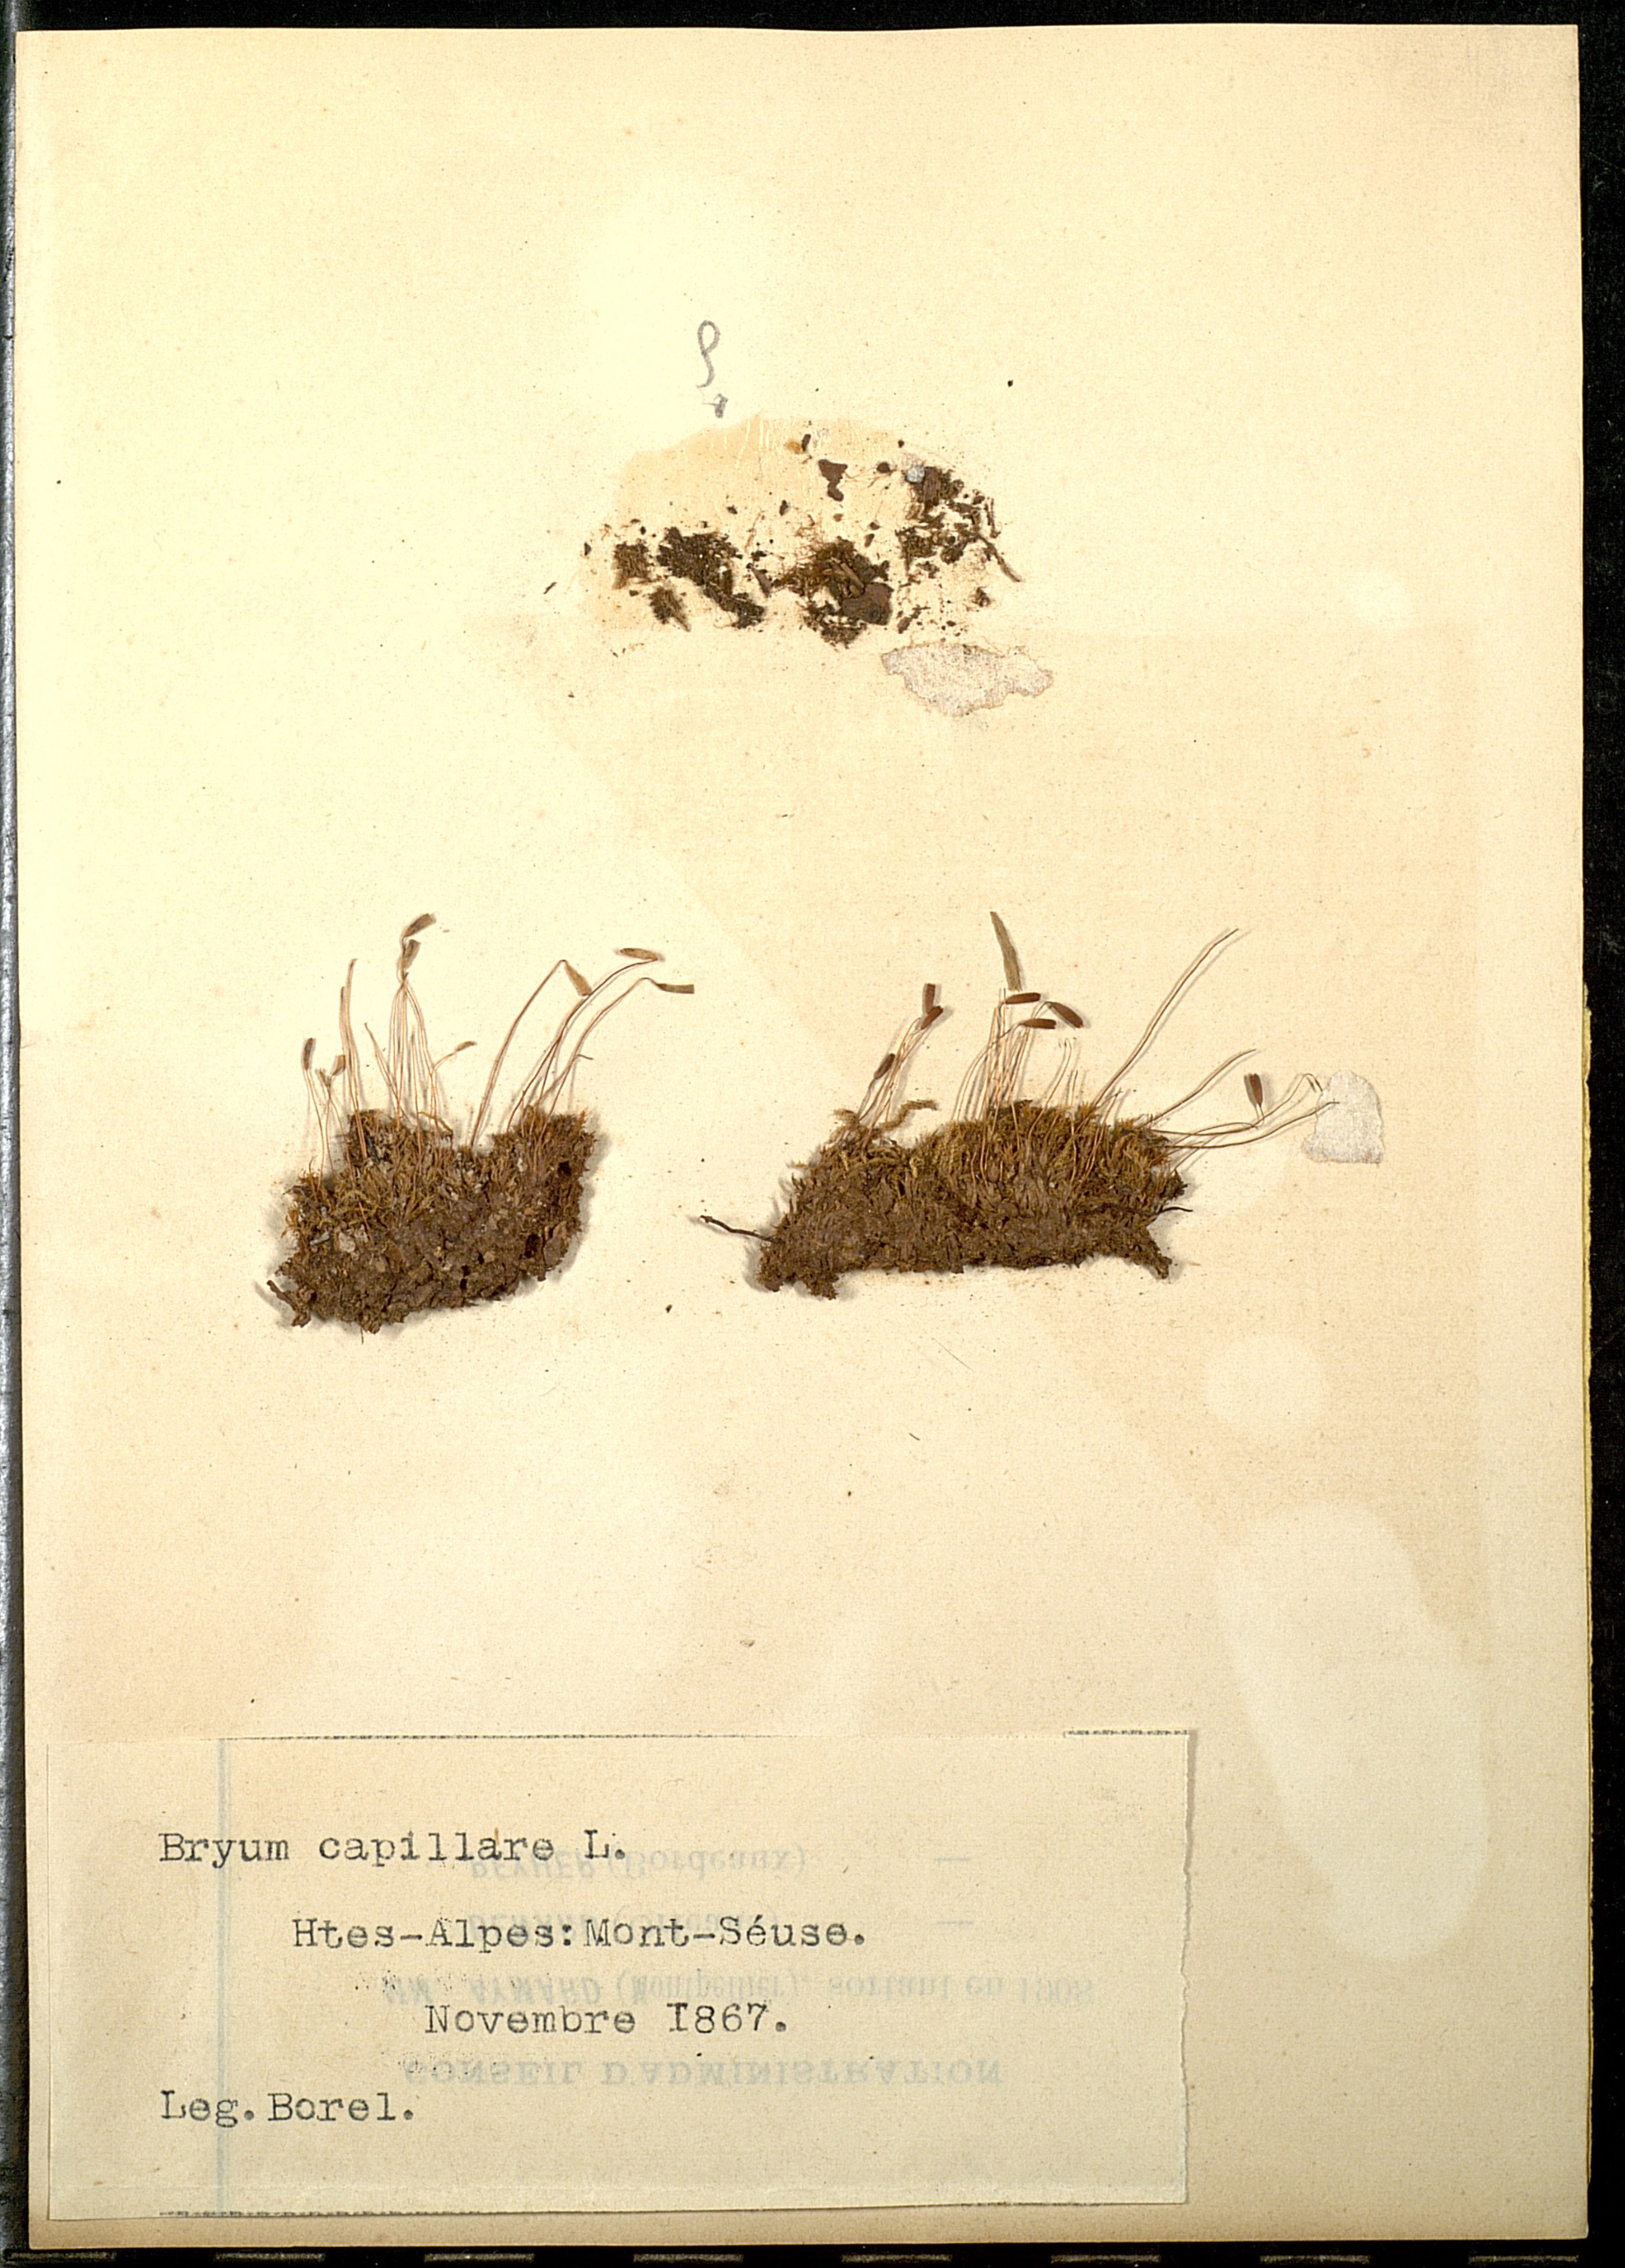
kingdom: Plantae
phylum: Bryophyta
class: Bryopsida
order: Bryales
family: Bryaceae
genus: Rosulabryum
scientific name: Rosulabryum capillare
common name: Capillary thread-moss
